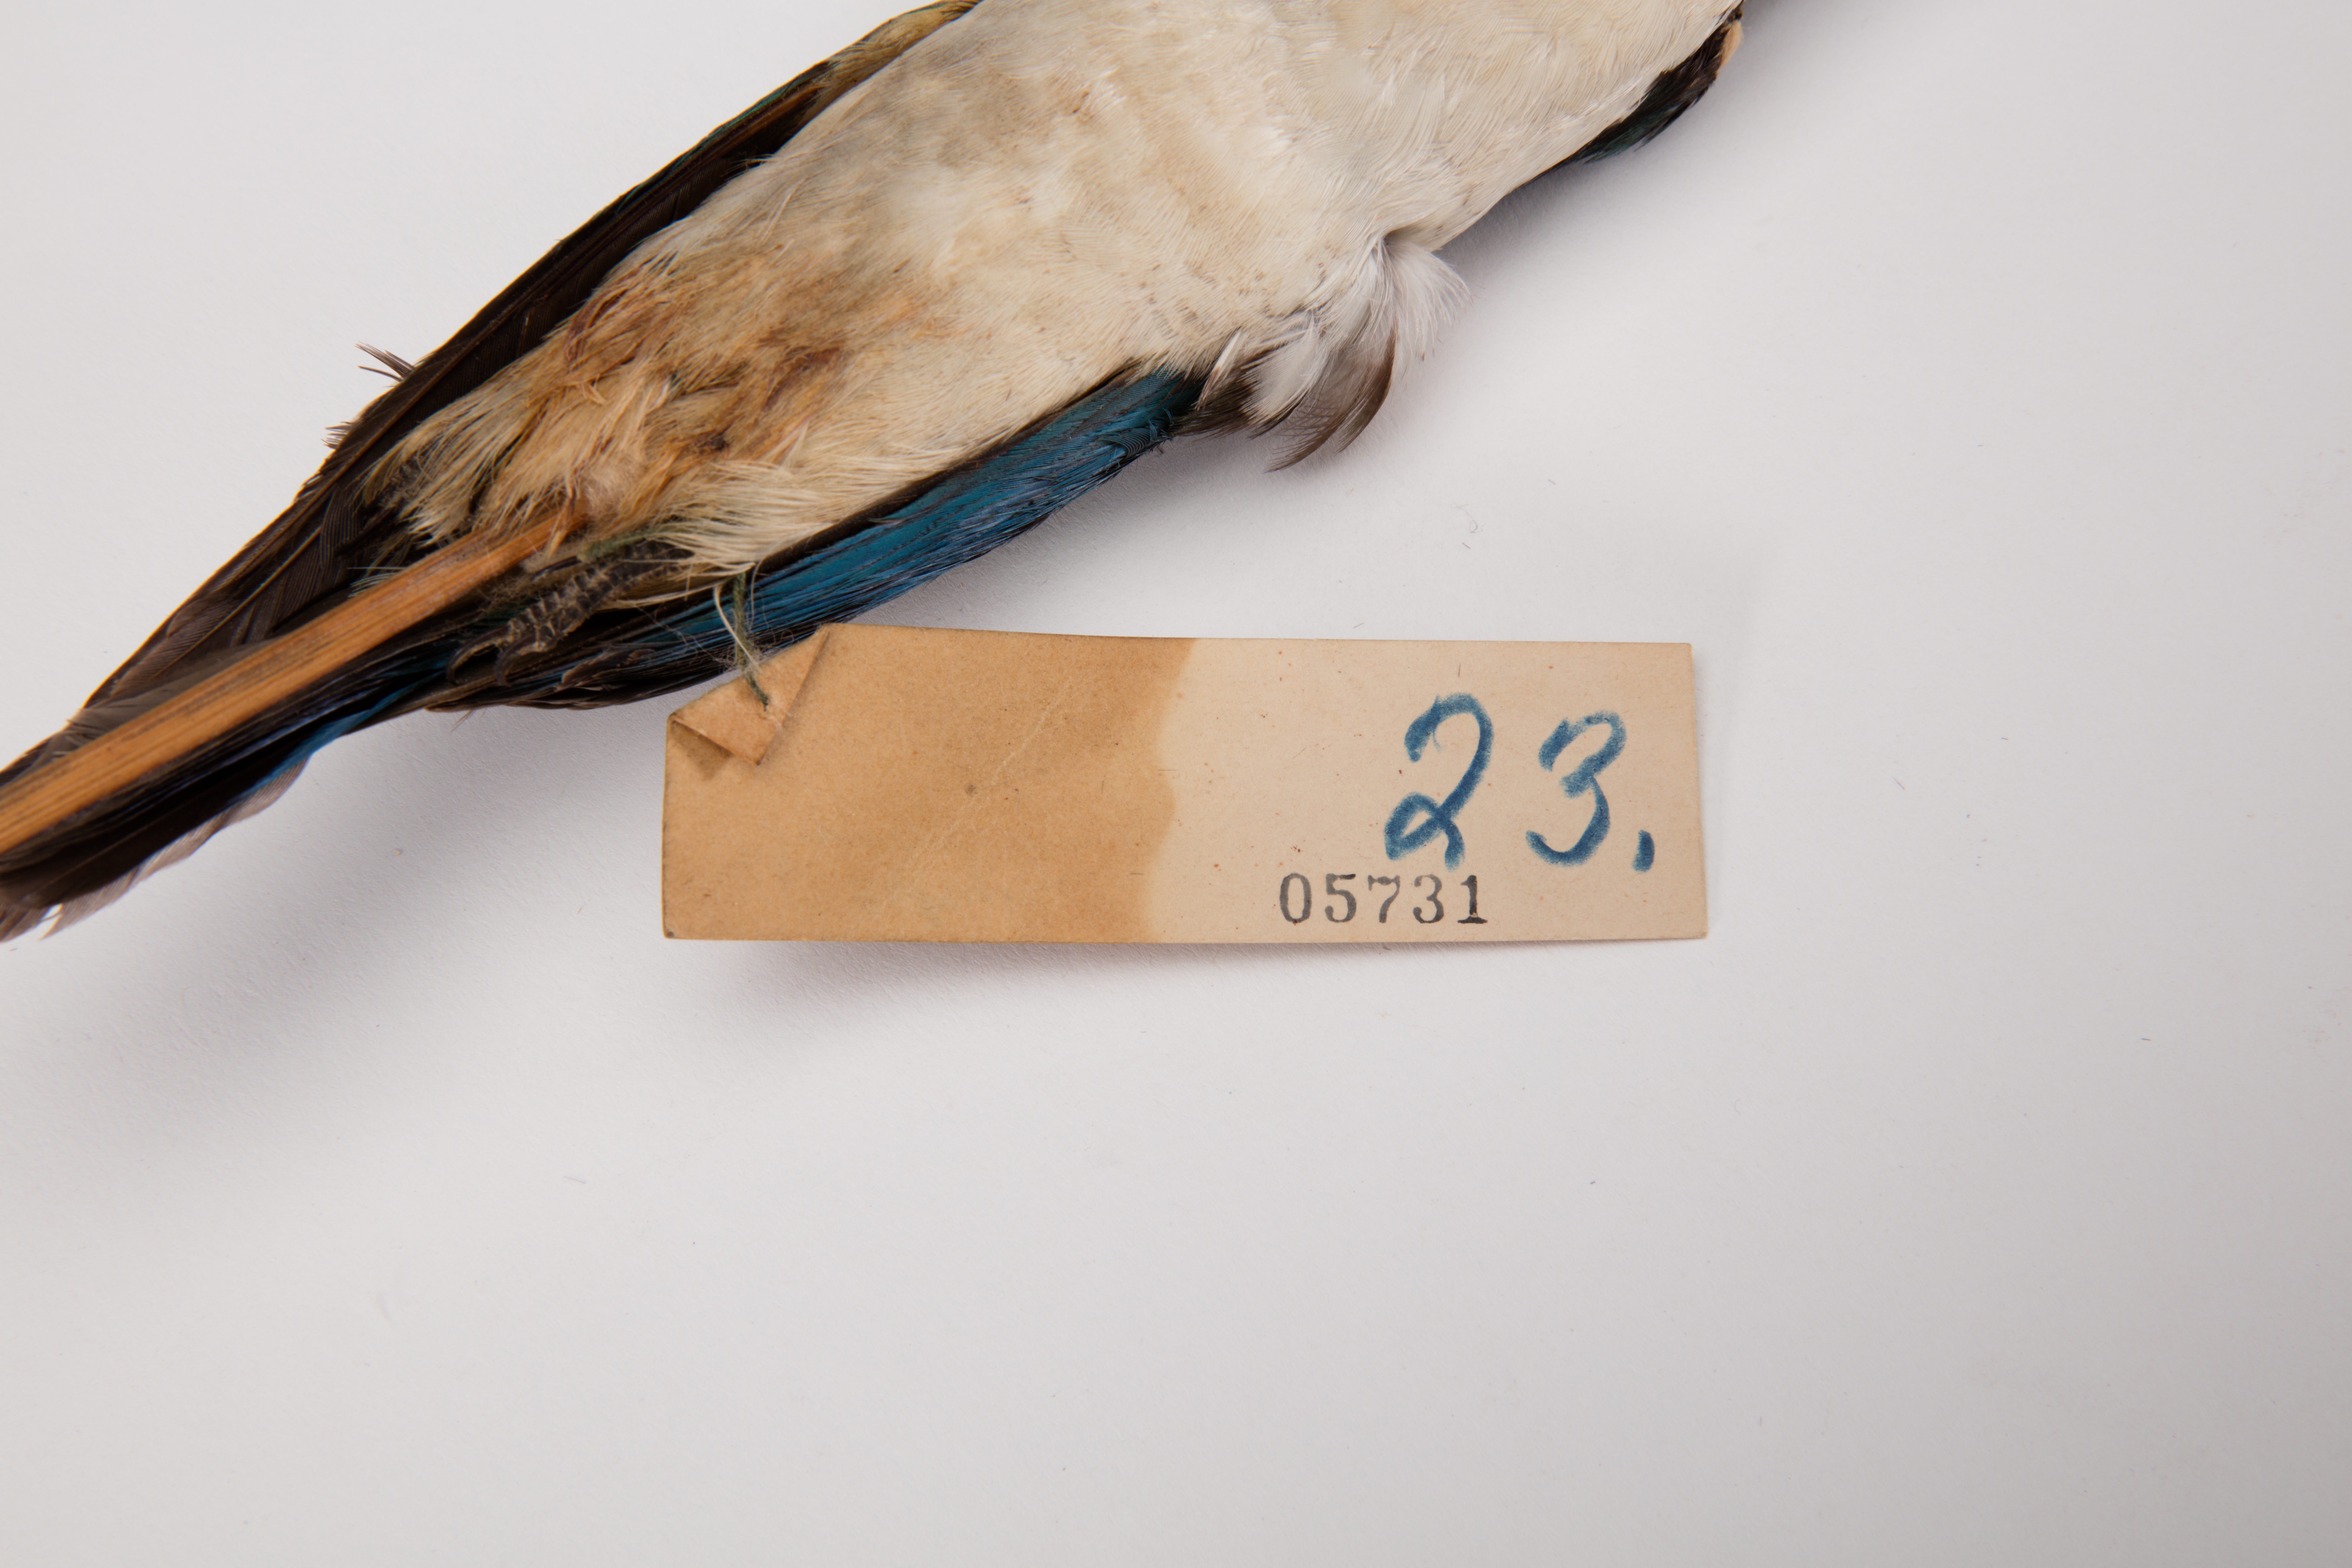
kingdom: Animalia
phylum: Chordata
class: Aves
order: Coraciiformes
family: Alcedinidae
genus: Todiramphus
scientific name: Todiramphus chloris
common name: Collared kingfisher
